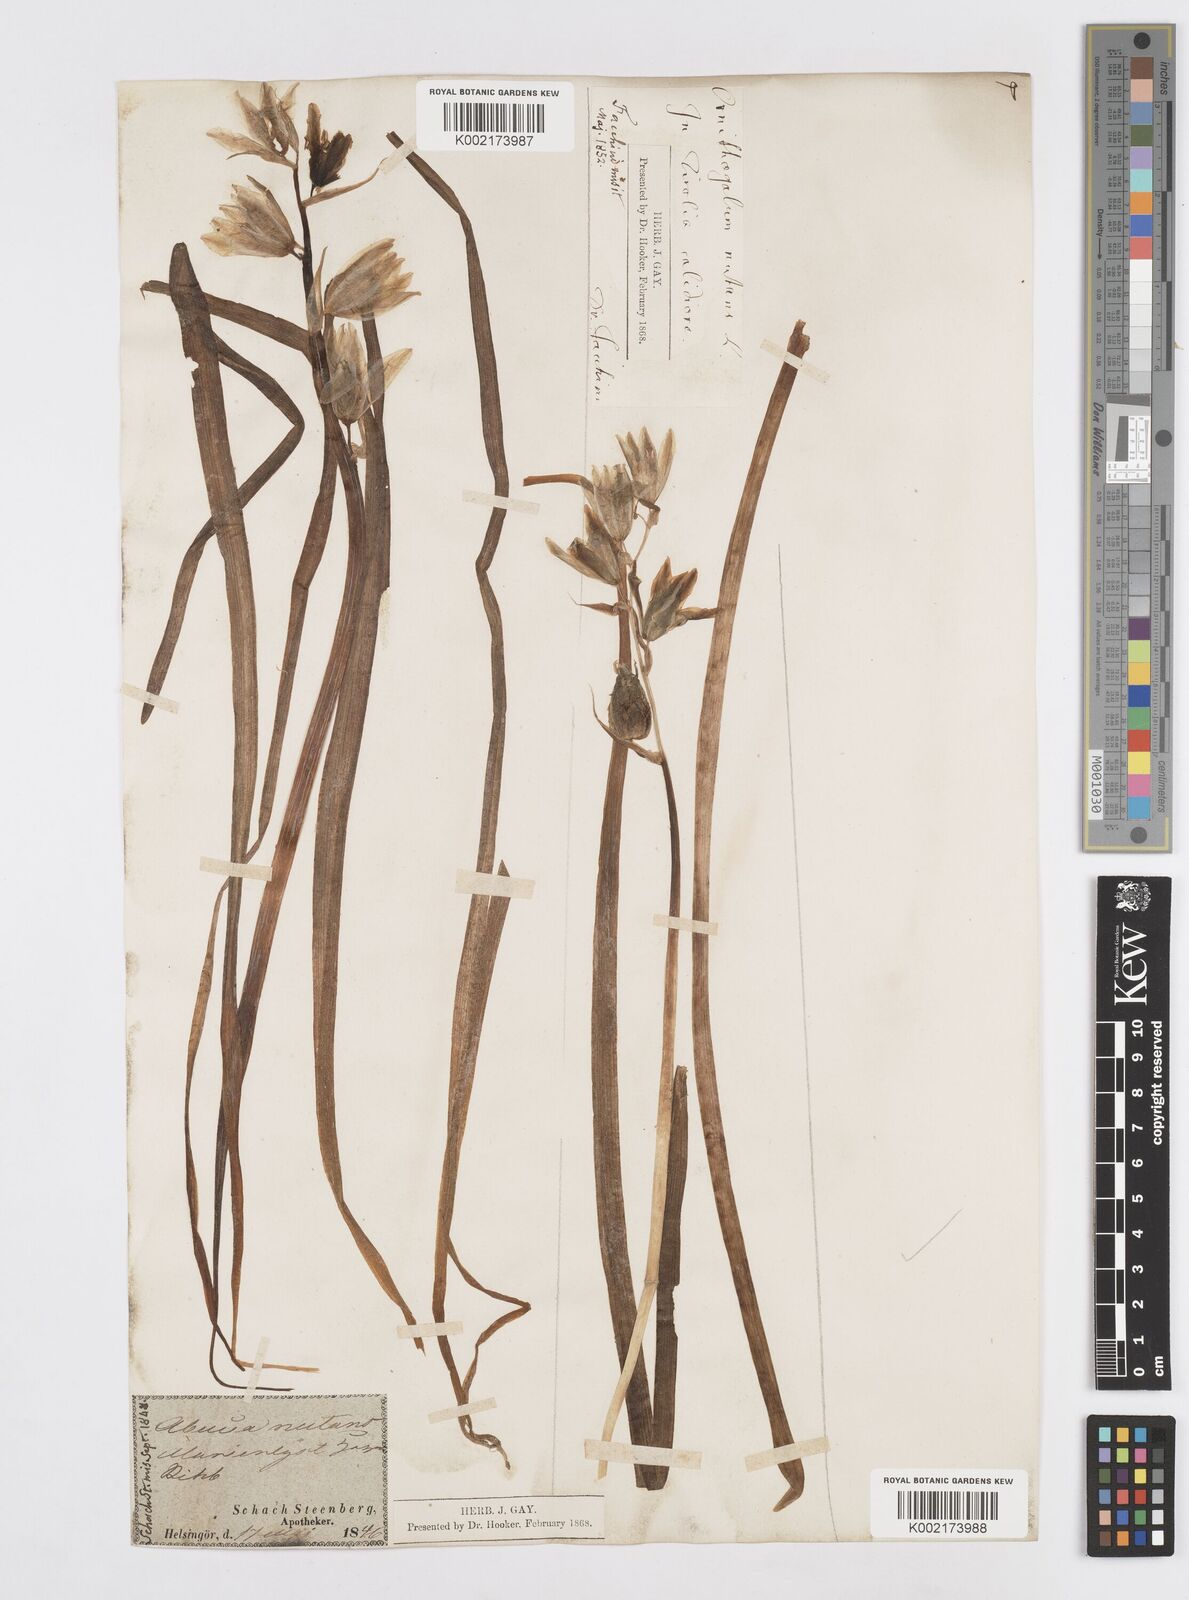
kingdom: Plantae
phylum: Tracheophyta
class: Liliopsida
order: Asparagales
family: Asparagaceae
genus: Ornithogalum
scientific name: Ornithogalum nutans
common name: Drooping star-of-bethlehem
